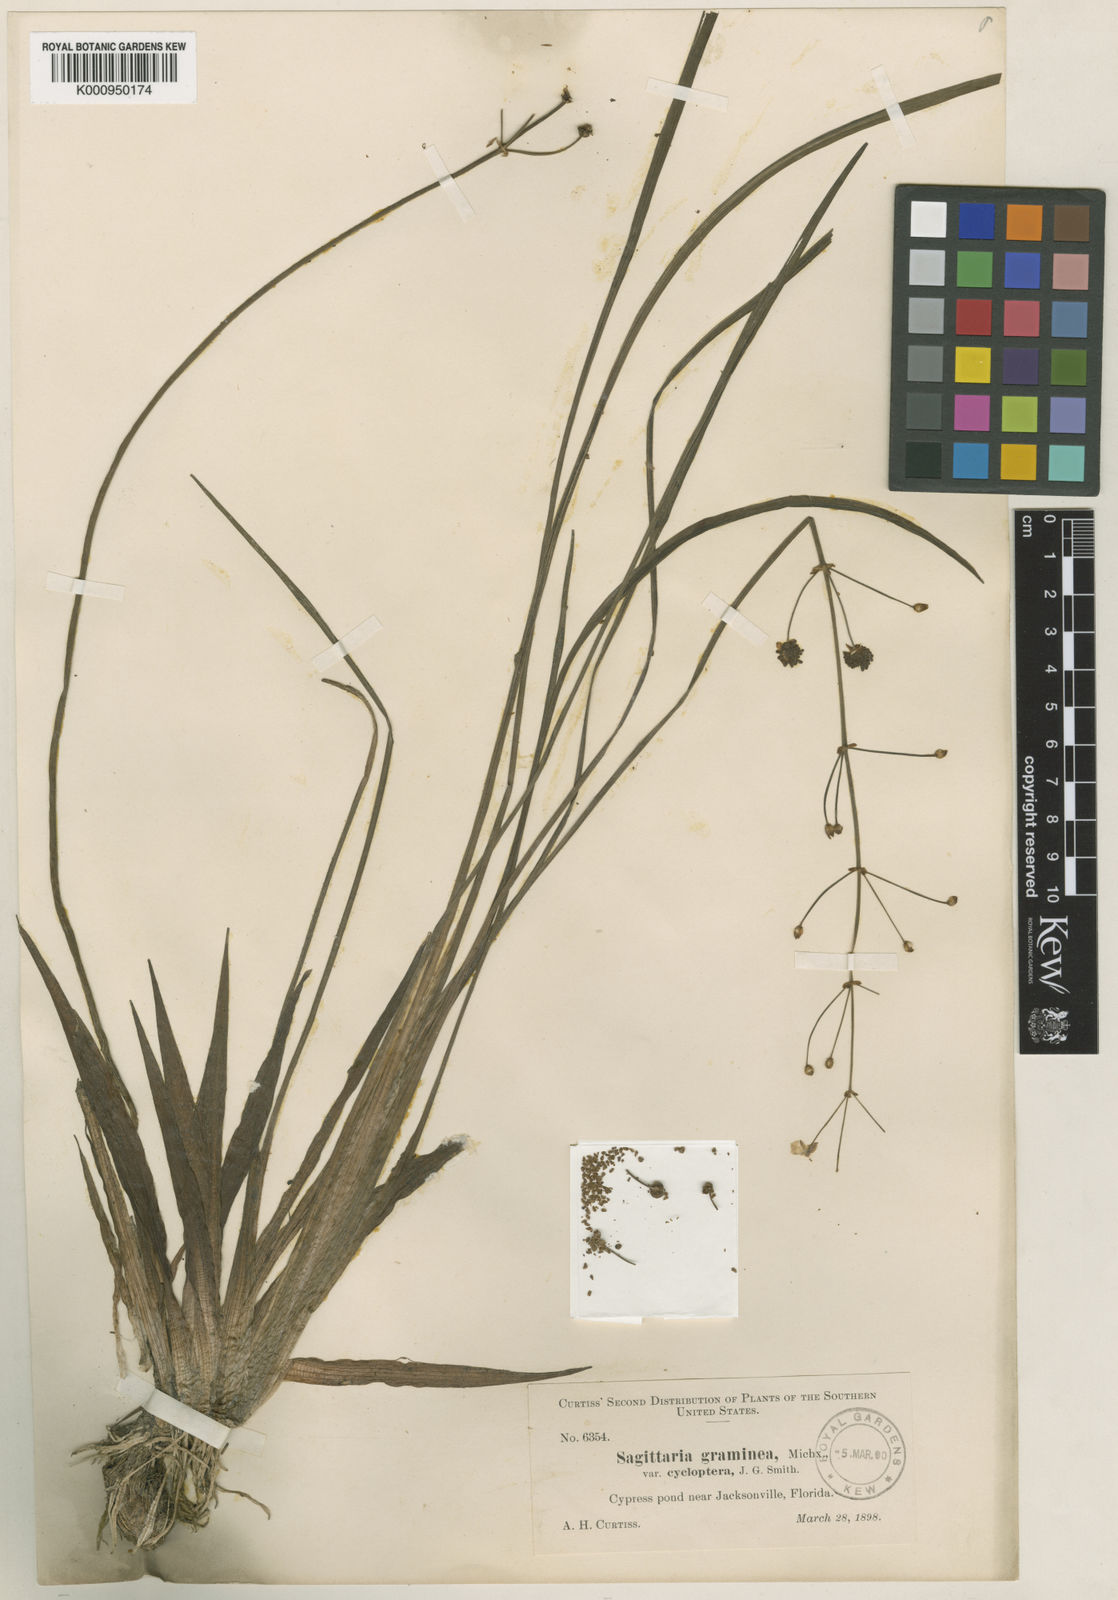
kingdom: Plantae
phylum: Tracheophyta
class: Liliopsida
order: Alismatales
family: Alismataceae
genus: Sagittaria
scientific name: Sagittaria graminea
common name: Grass-leaved arrowhead
